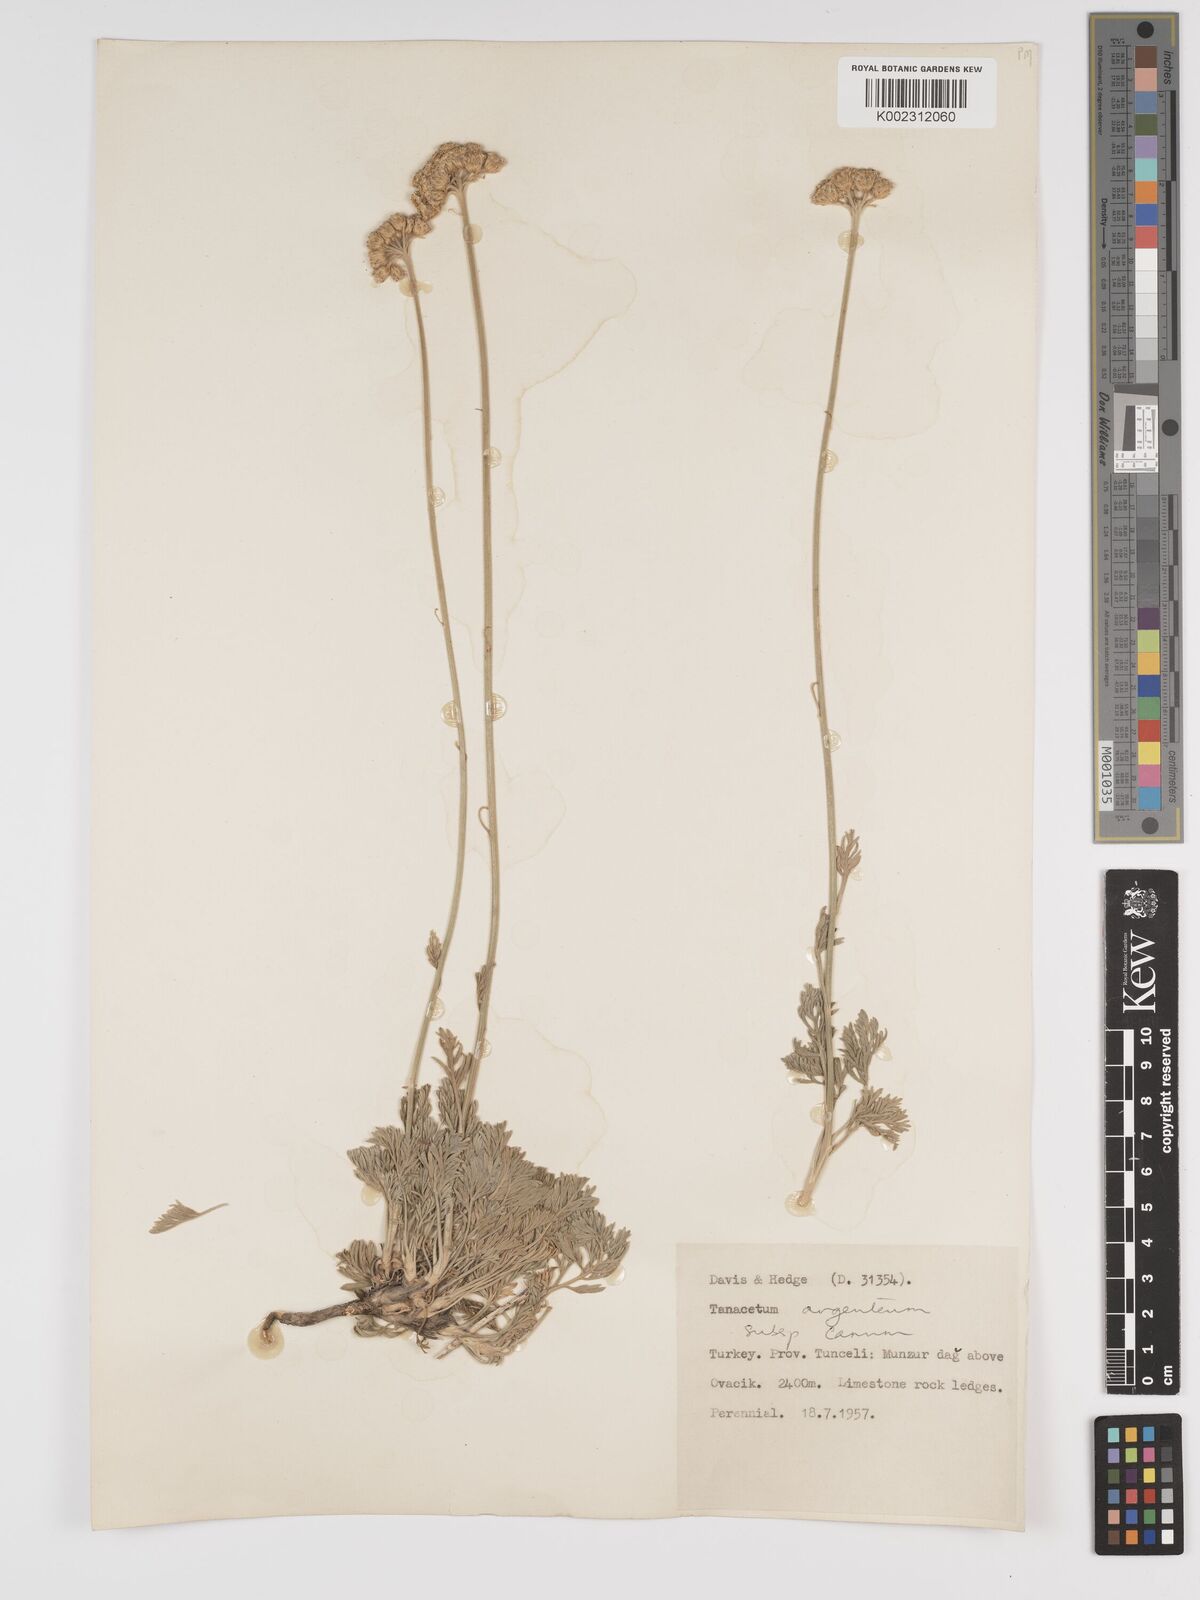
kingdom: Plantae
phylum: Tracheophyta
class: Magnoliopsida
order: Asterales
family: Asteraceae
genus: Tanacetum
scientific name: Tanacetum argenteum
